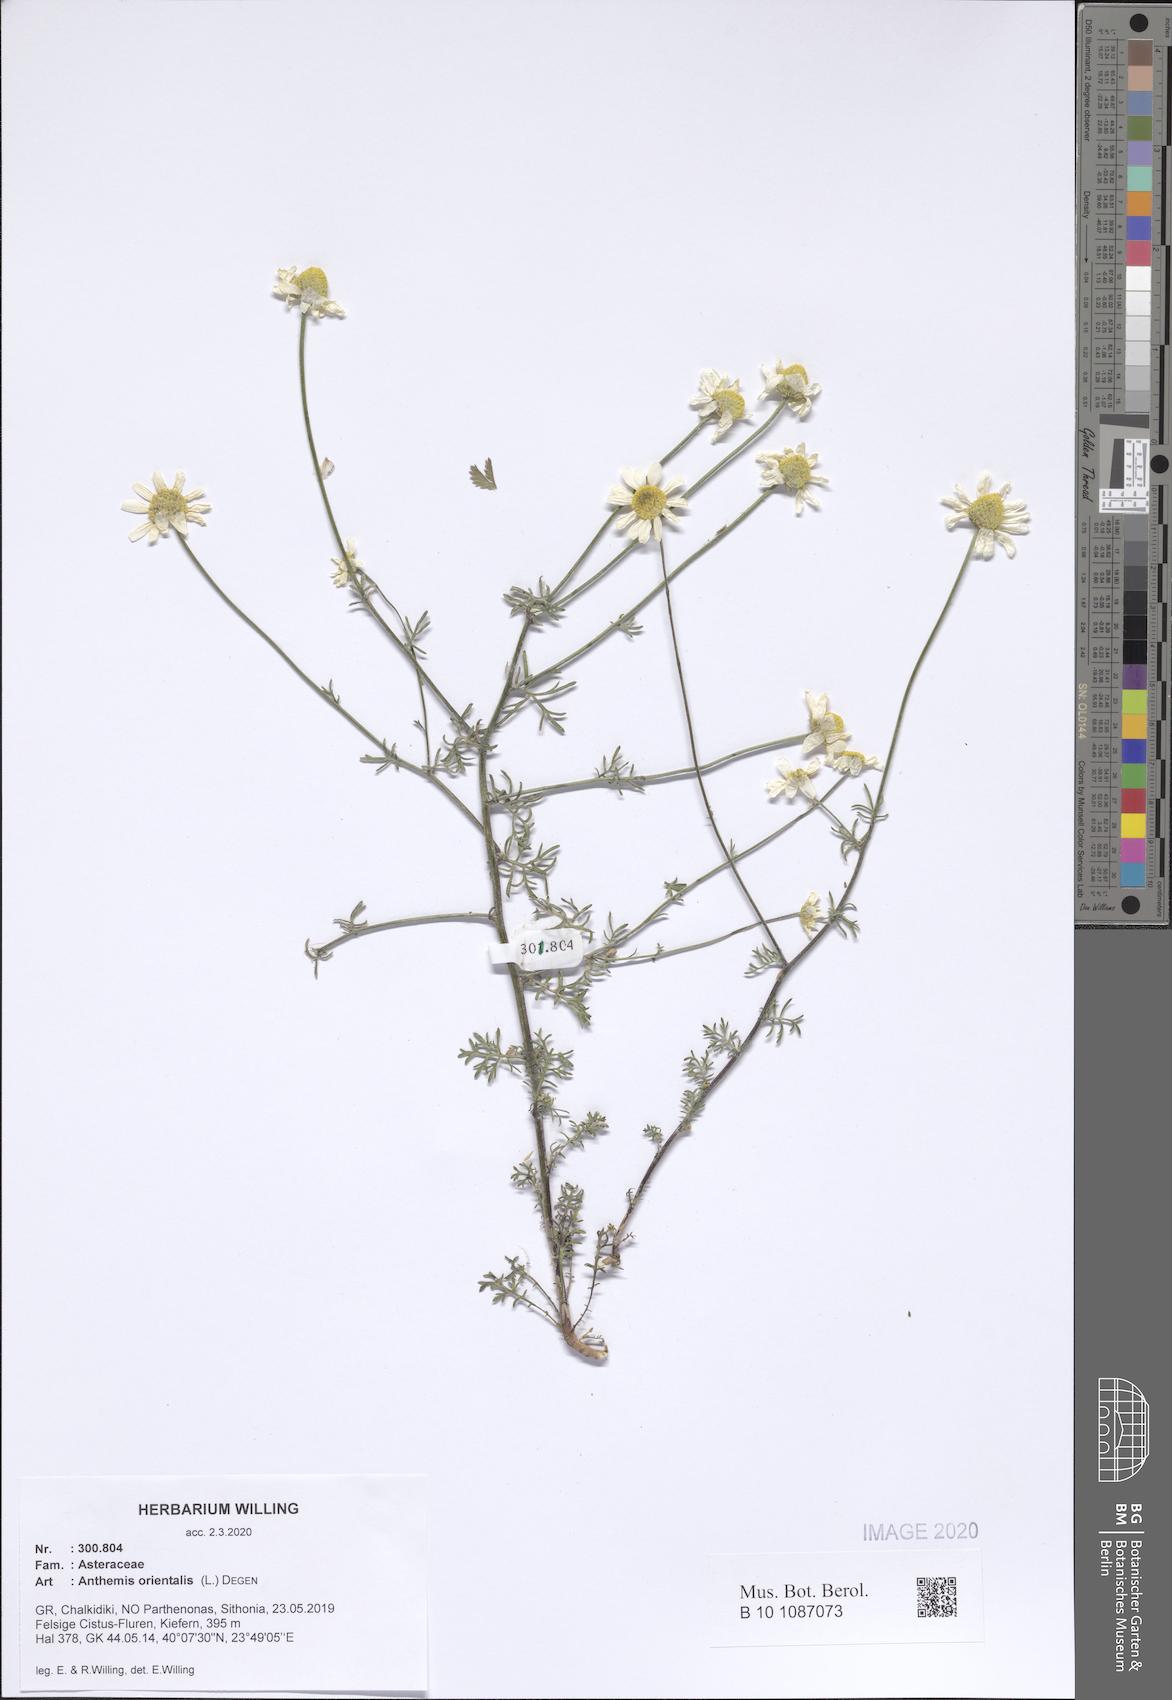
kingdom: Plantae
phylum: Tracheophyta
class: Magnoliopsida
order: Asterales
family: Asteraceae
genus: Anthemis
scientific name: Anthemis orientalis
